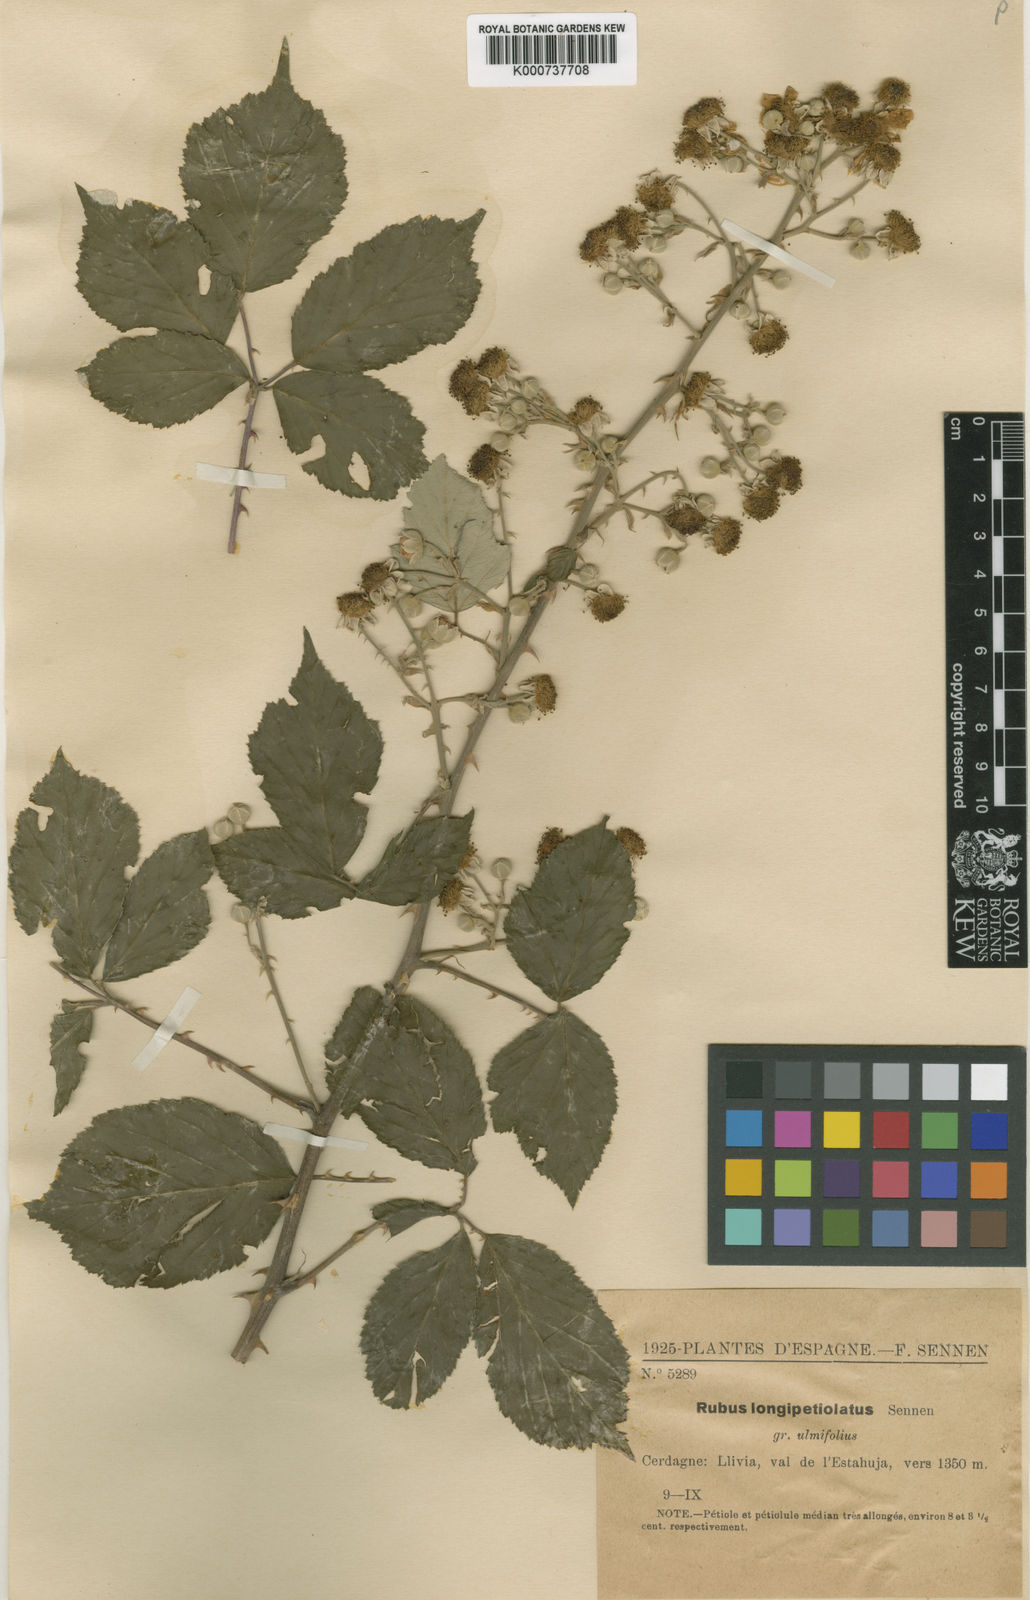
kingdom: Plantae
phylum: Tracheophyta
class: Magnoliopsida
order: Rosales
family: Rosaceae
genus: Rubus
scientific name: Rubus ulmifolius
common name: Elmleaf blackberry
